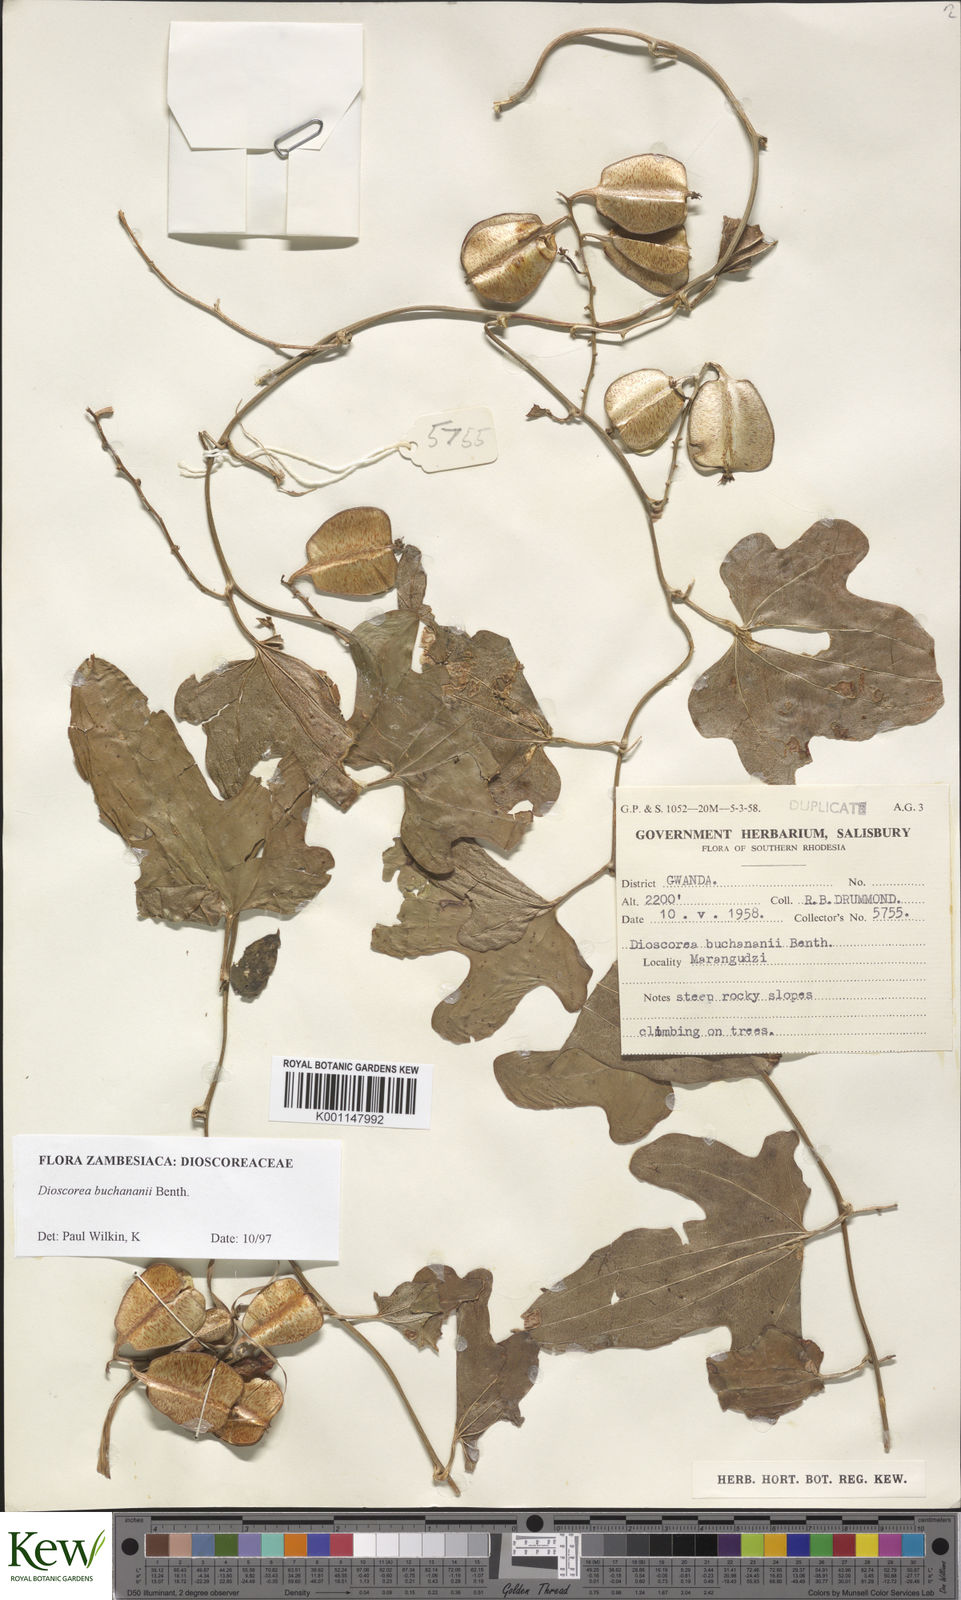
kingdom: Plantae
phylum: Tracheophyta
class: Liliopsida
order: Dioscoreales
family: Dioscoreaceae
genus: Dioscorea
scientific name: Dioscorea buchananii
